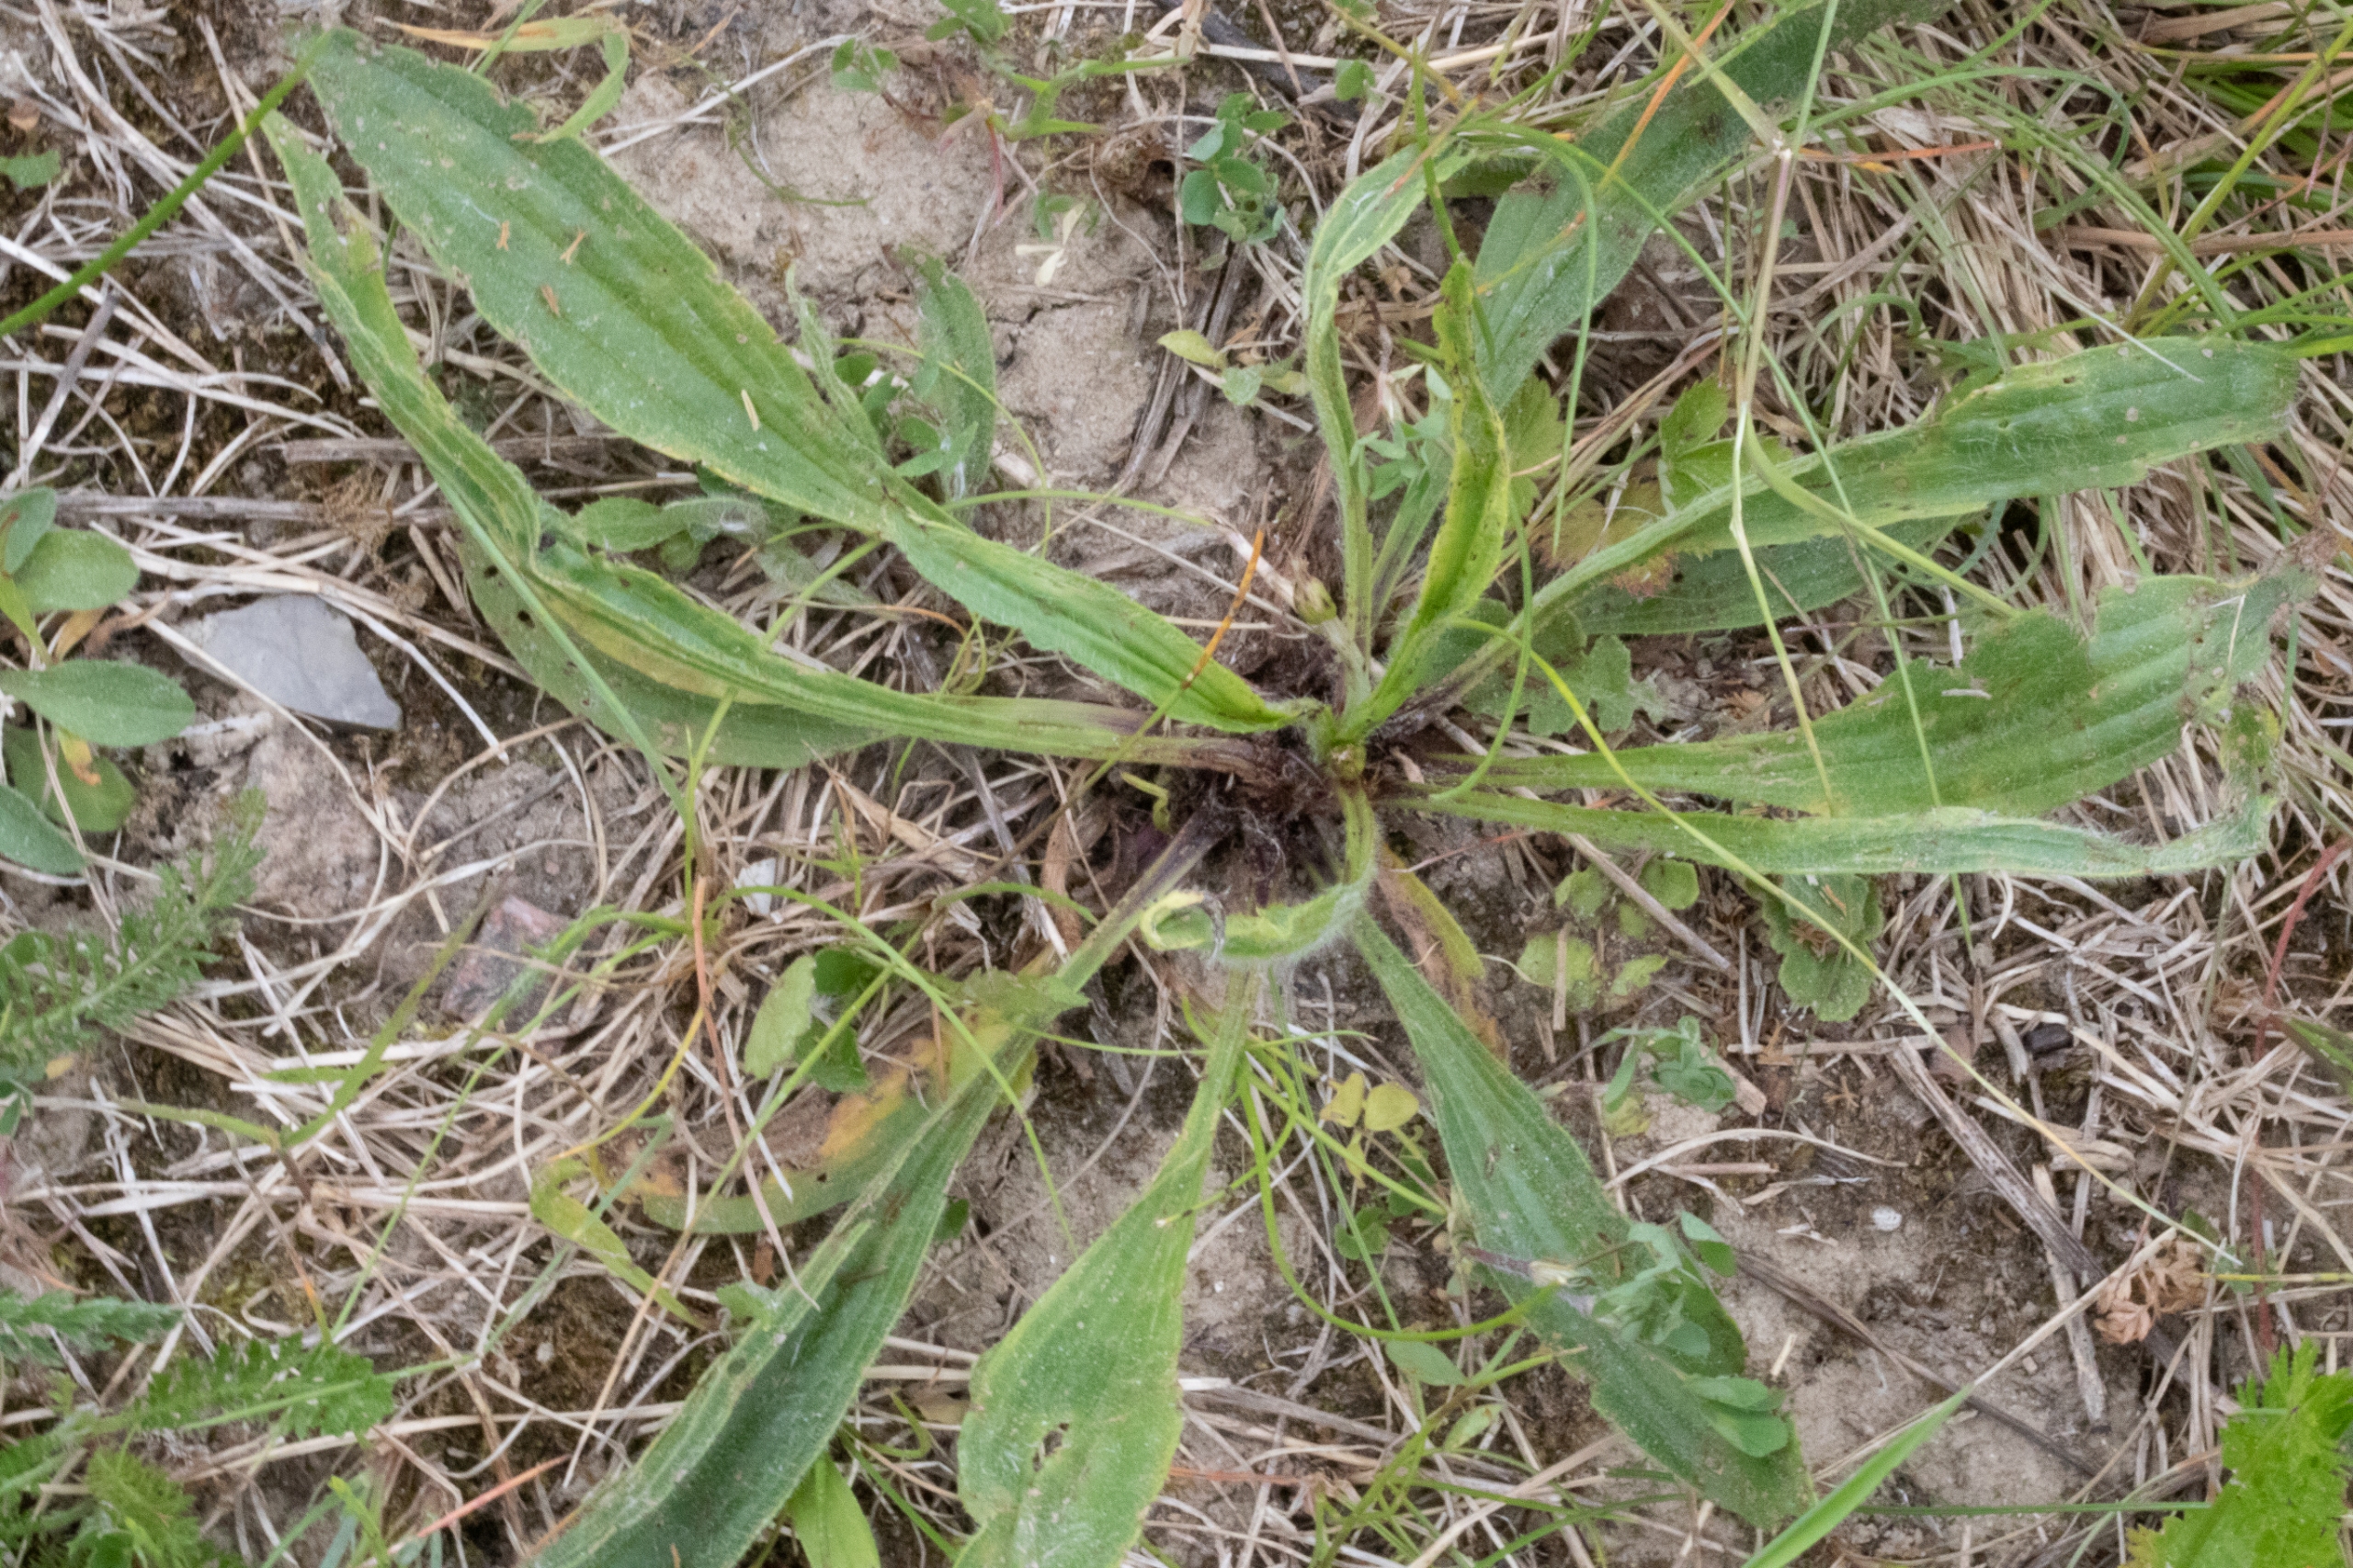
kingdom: Plantae
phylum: Tracheophyta
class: Magnoliopsida
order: Lamiales
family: Plantaginaceae
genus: Plantago
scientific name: Plantago lanceolata
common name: Lancet-vejbred
